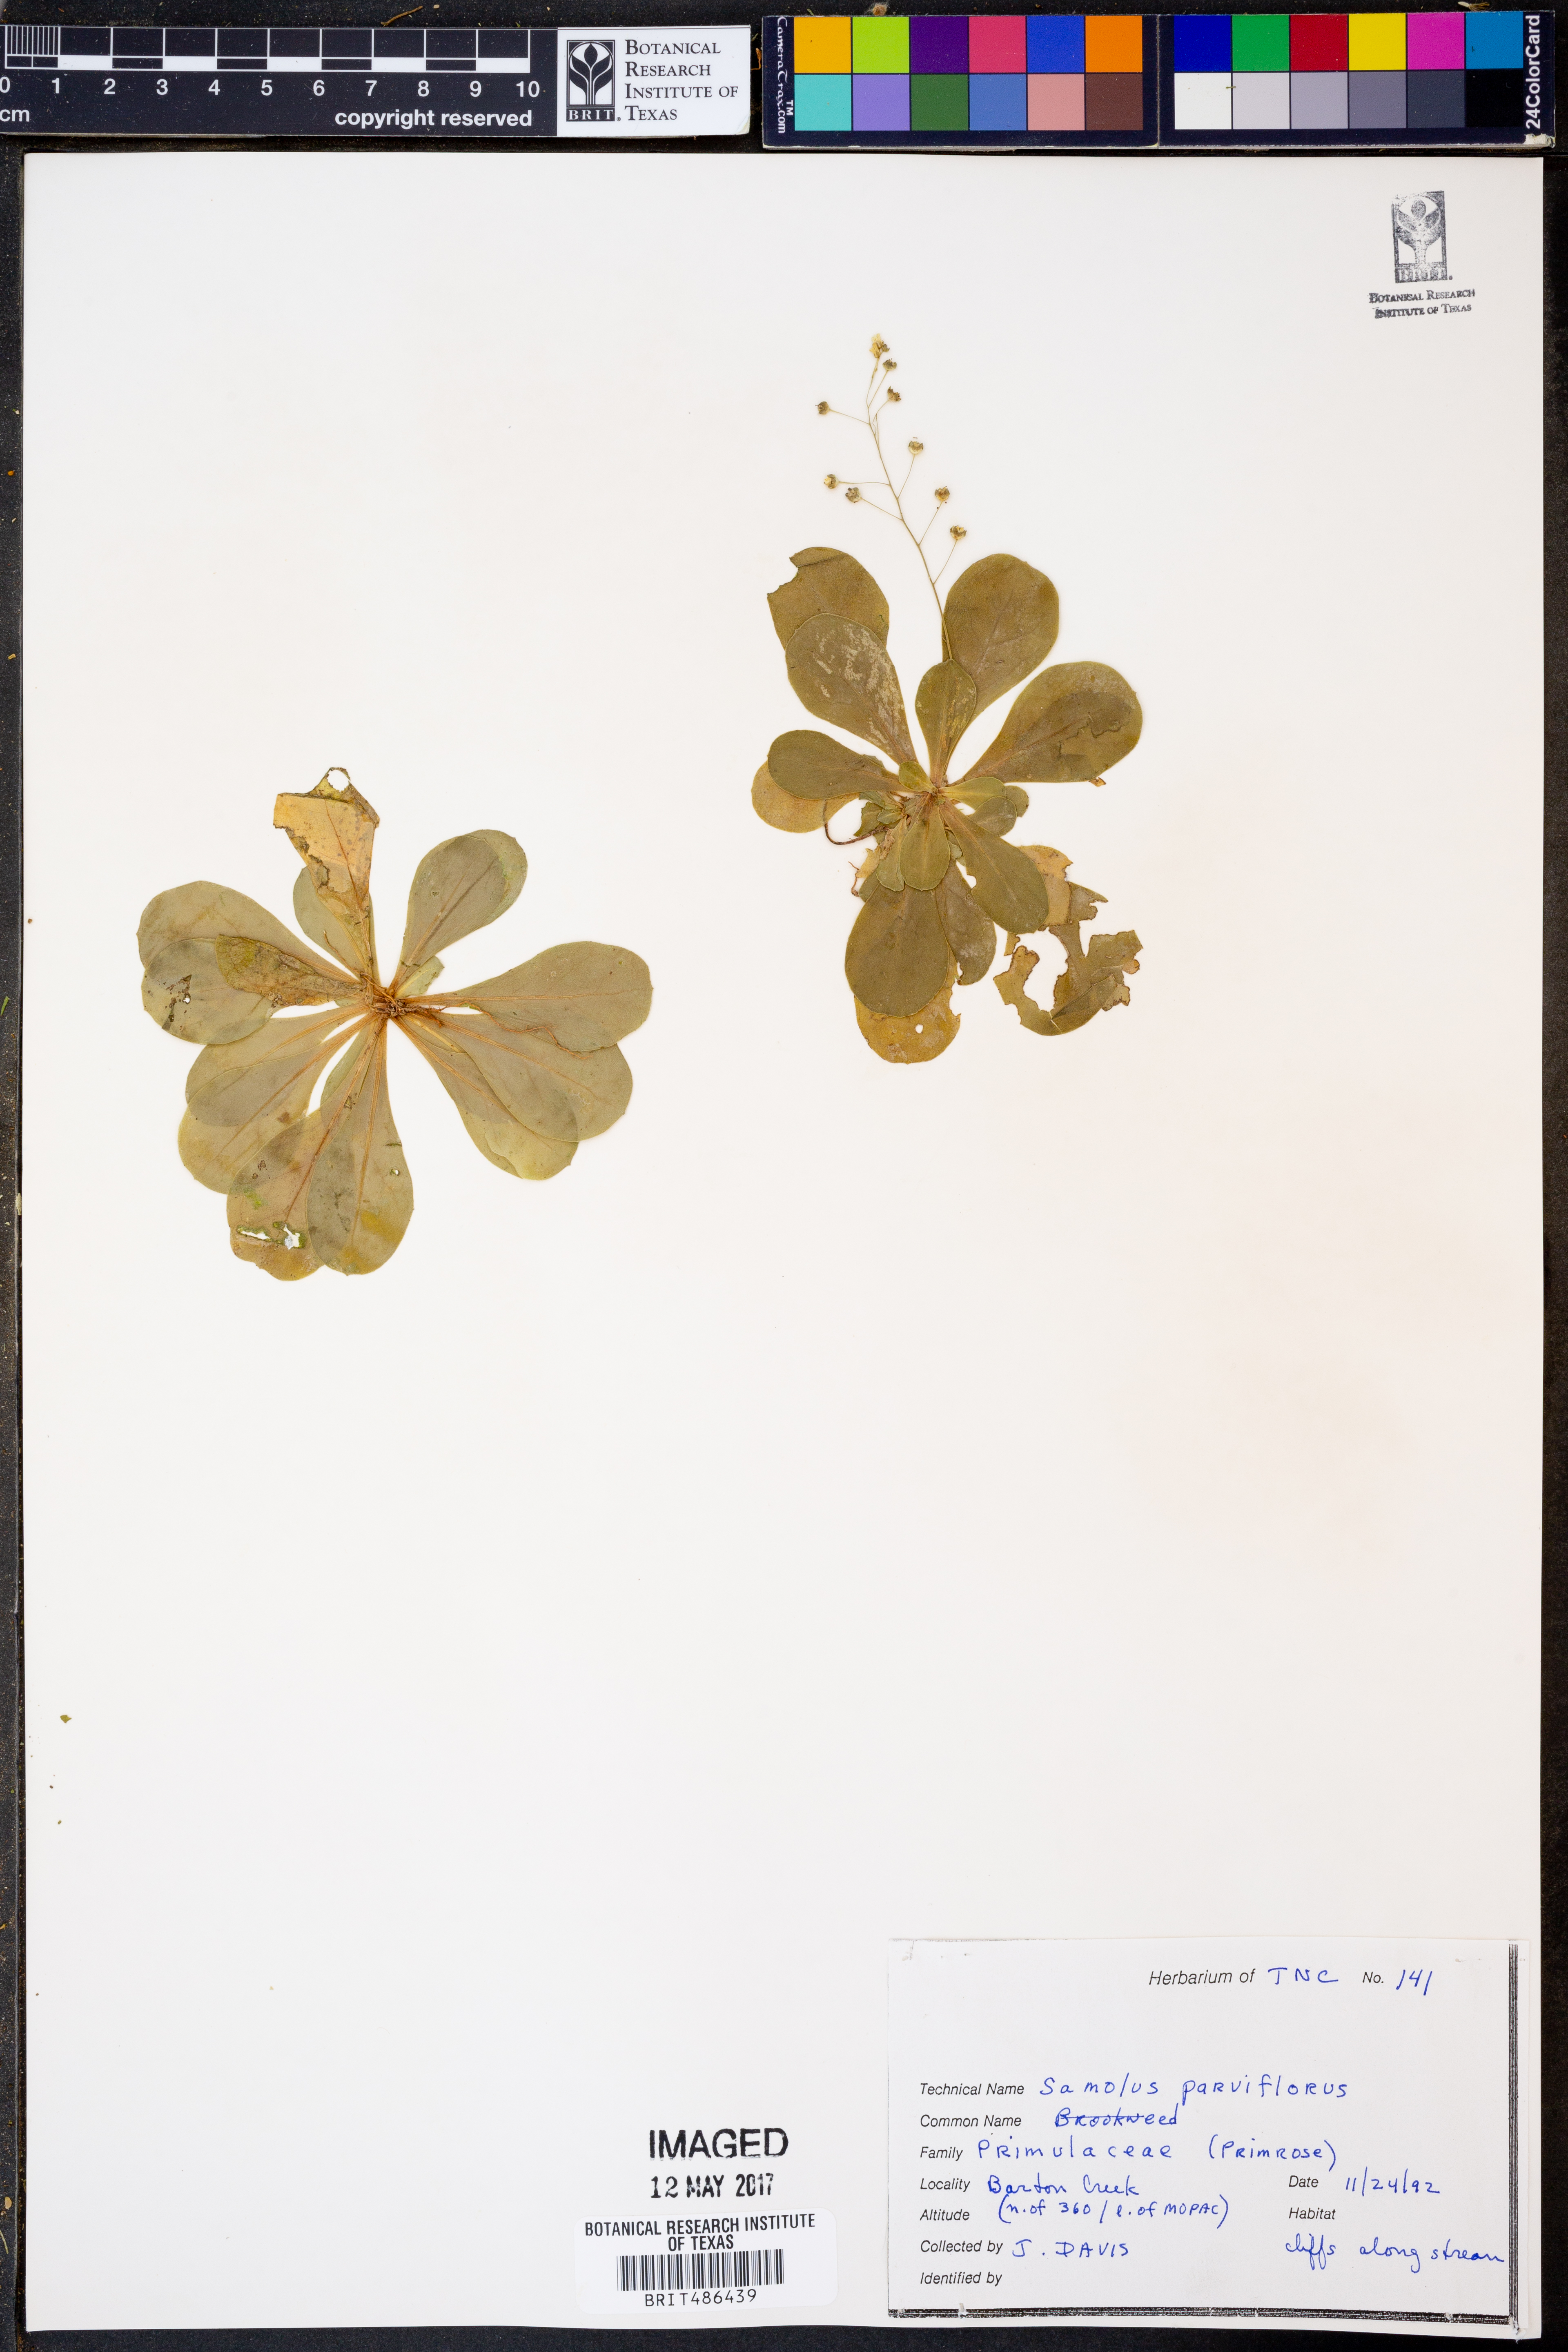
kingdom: Plantae
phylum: Tracheophyta
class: Magnoliopsida
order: Ericales
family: Primulaceae
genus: Samolus
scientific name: Samolus parviflorus
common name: False water pimpernel
